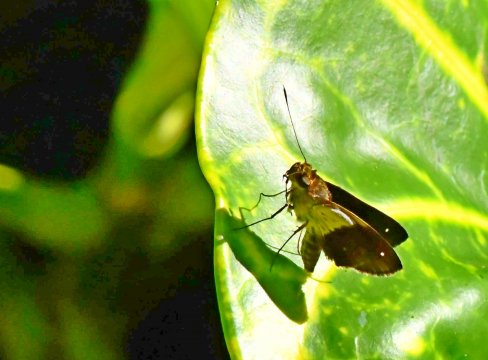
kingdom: Animalia
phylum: Arthropoda
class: Insecta
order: Lepidoptera
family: Hesperiidae
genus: Justinia
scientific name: Justinia norda
